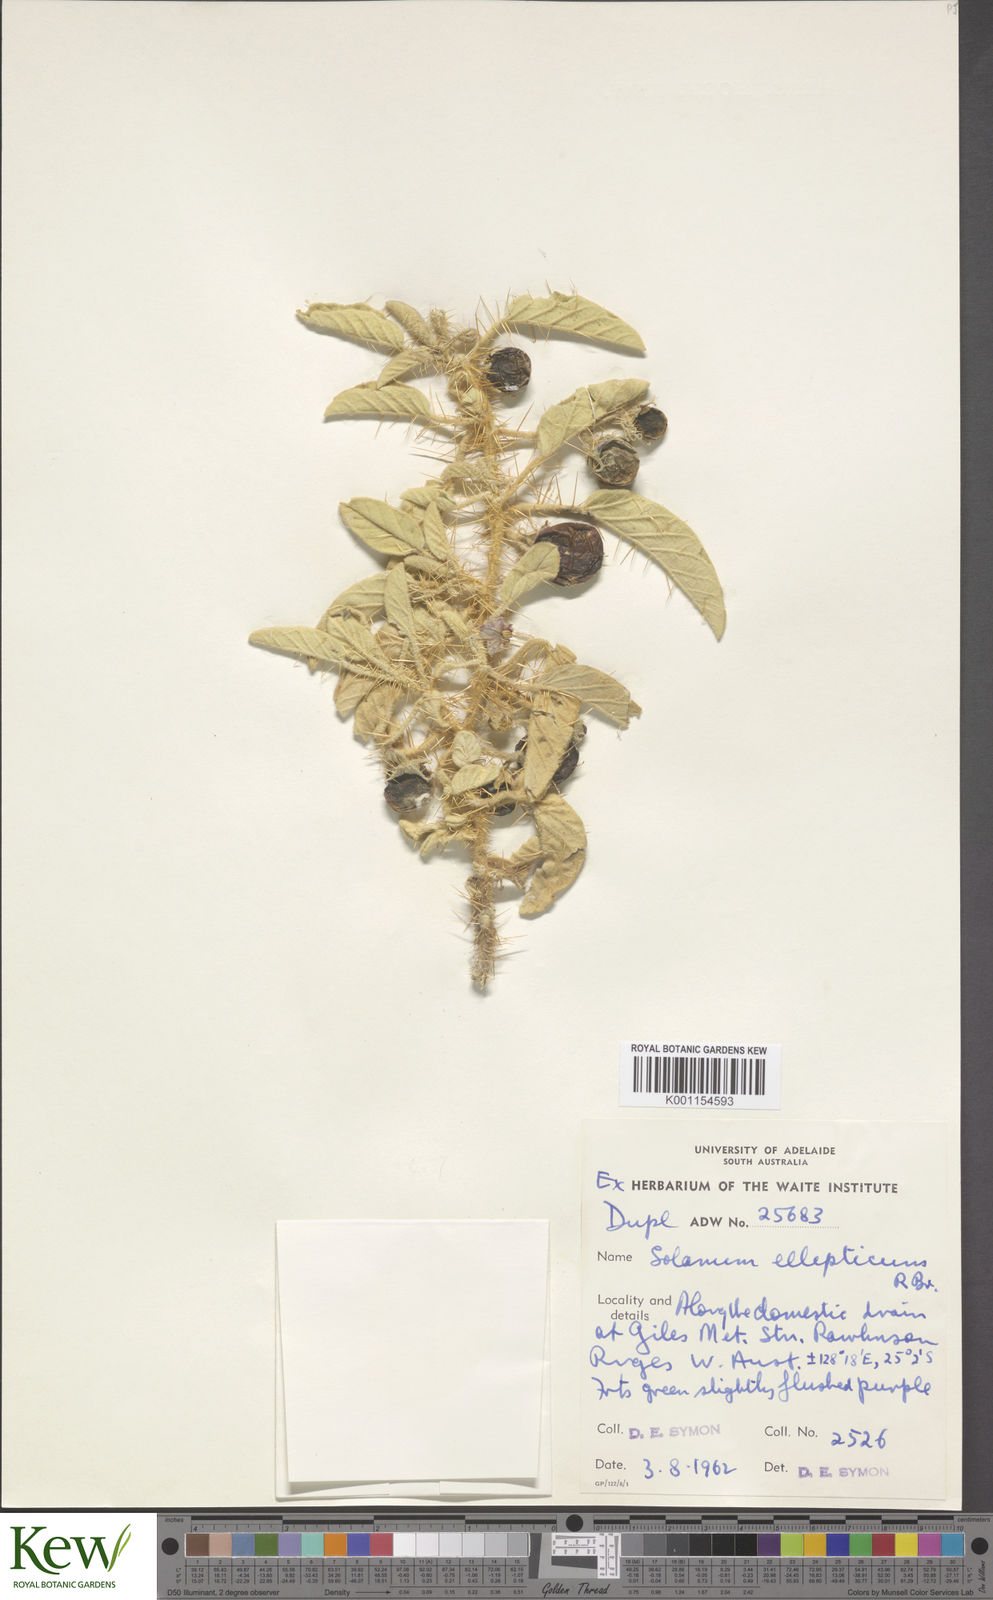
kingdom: Plantae
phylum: Tracheophyta
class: Magnoliopsida
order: Solanales
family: Solanaceae
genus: Solanum
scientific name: Solanum ellipticum
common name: Potato-bush
